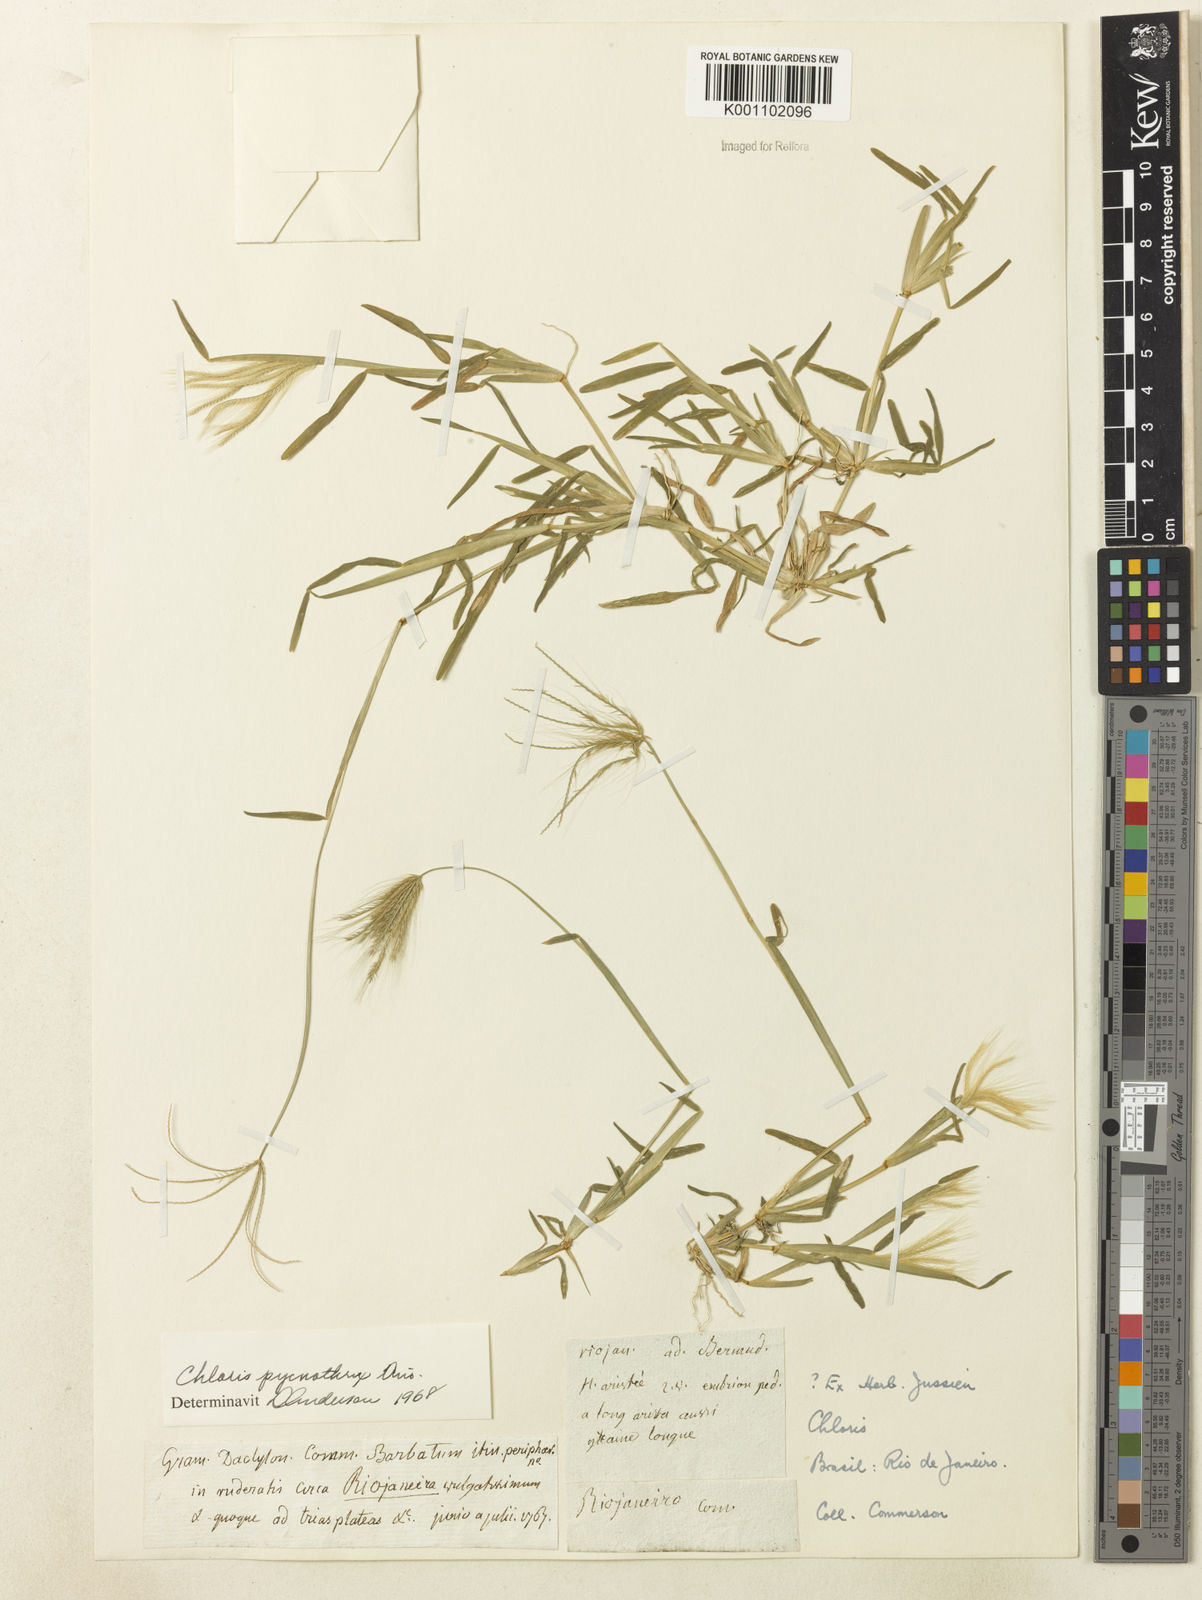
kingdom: Plantae
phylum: Tracheophyta
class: Liliopsida
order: Poales
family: Poaceae
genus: Chloris
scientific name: Chloris pycnothrix
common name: Spiderweb chloris
